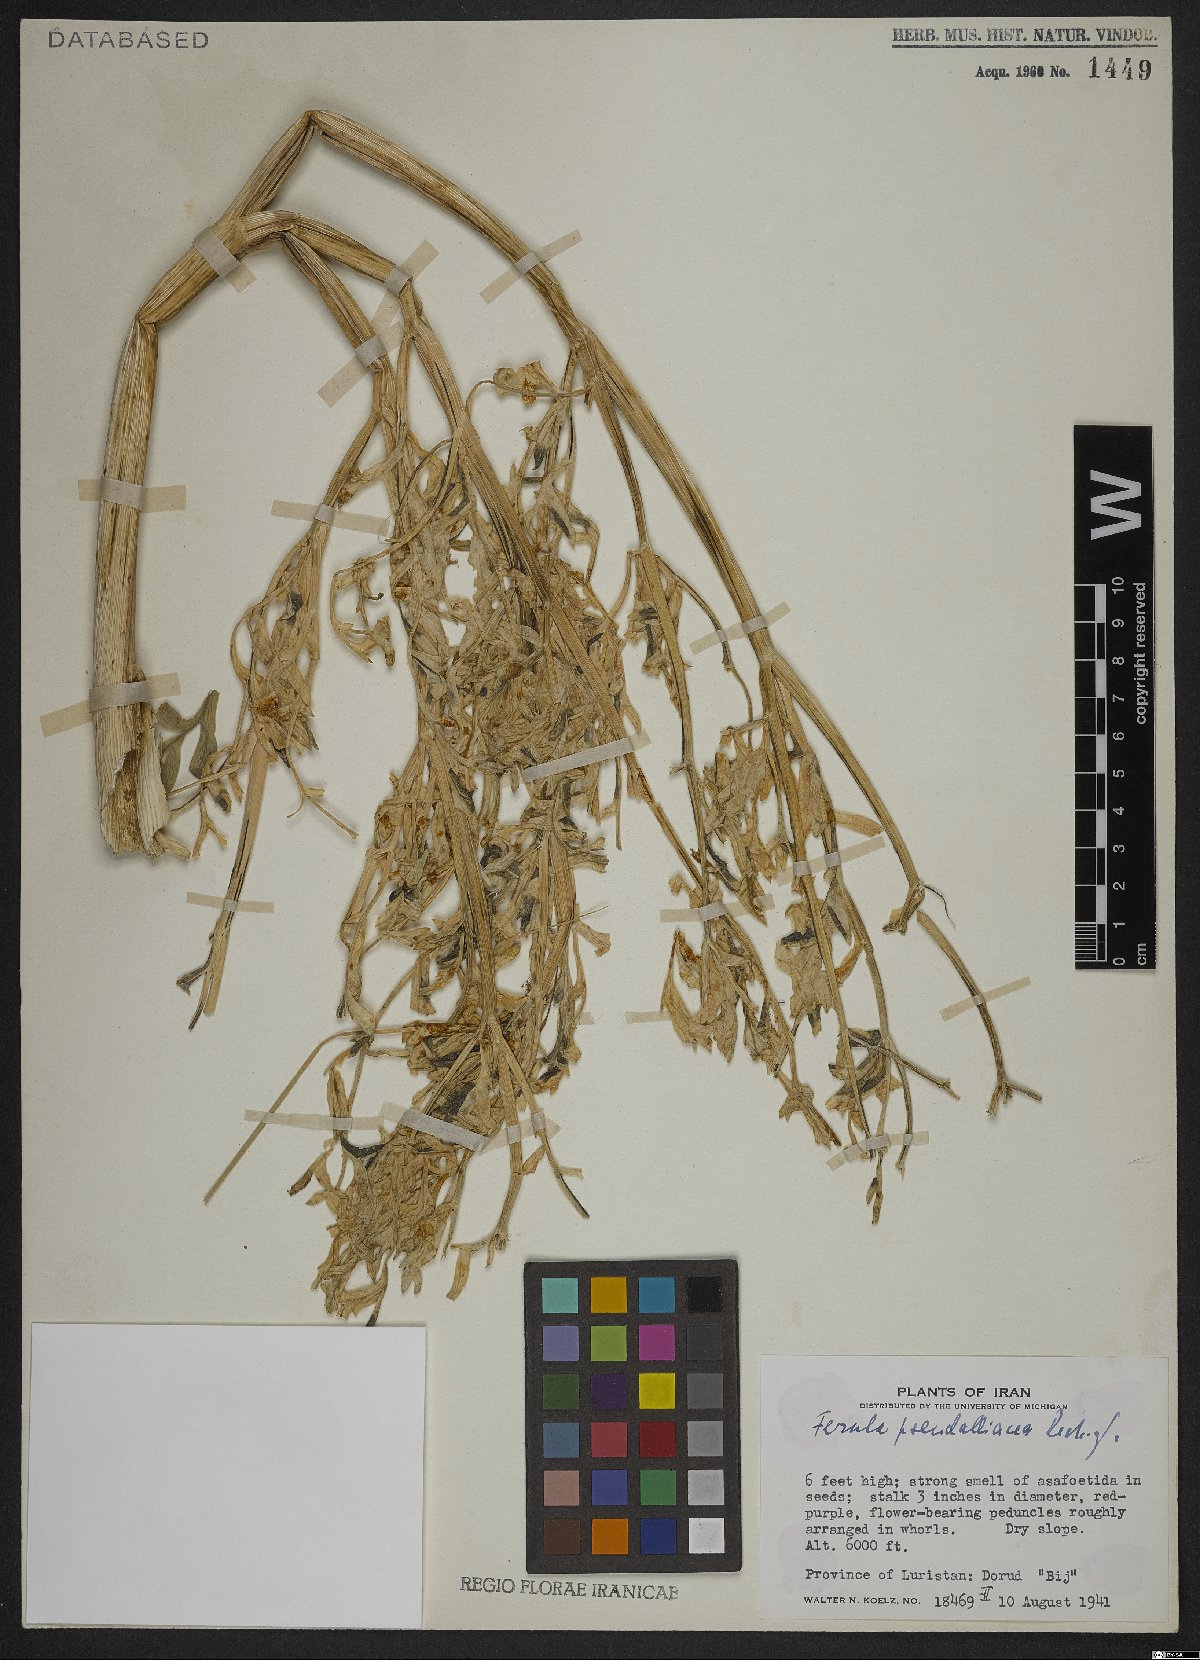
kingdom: Plantae
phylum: Tracheophyta
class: Magnoliopsida
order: Apiales
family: Apiaceae
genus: Ferula
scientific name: Ferula pseudalliacea
